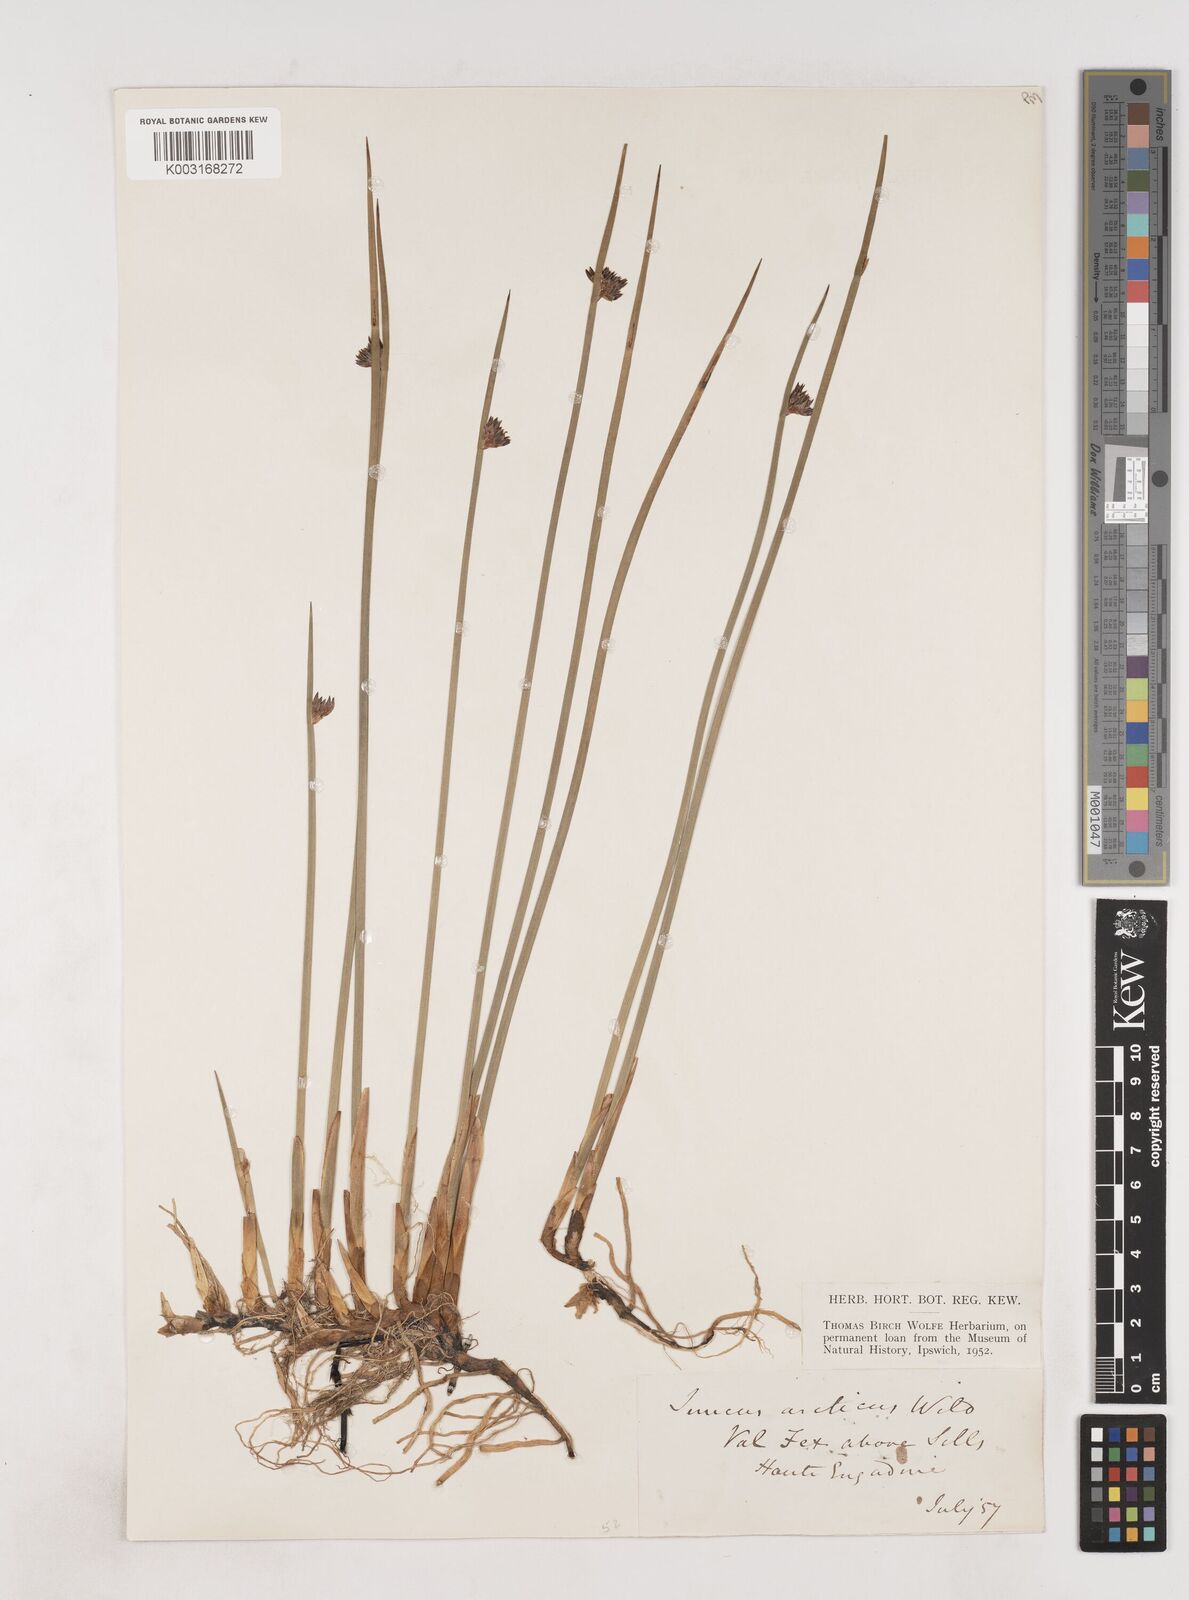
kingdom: Plantae
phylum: Tracheophyta
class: Liliopsida
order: Poales
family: Juncaceae
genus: Juncus
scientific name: Juncus arcticus
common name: Arctic rush
